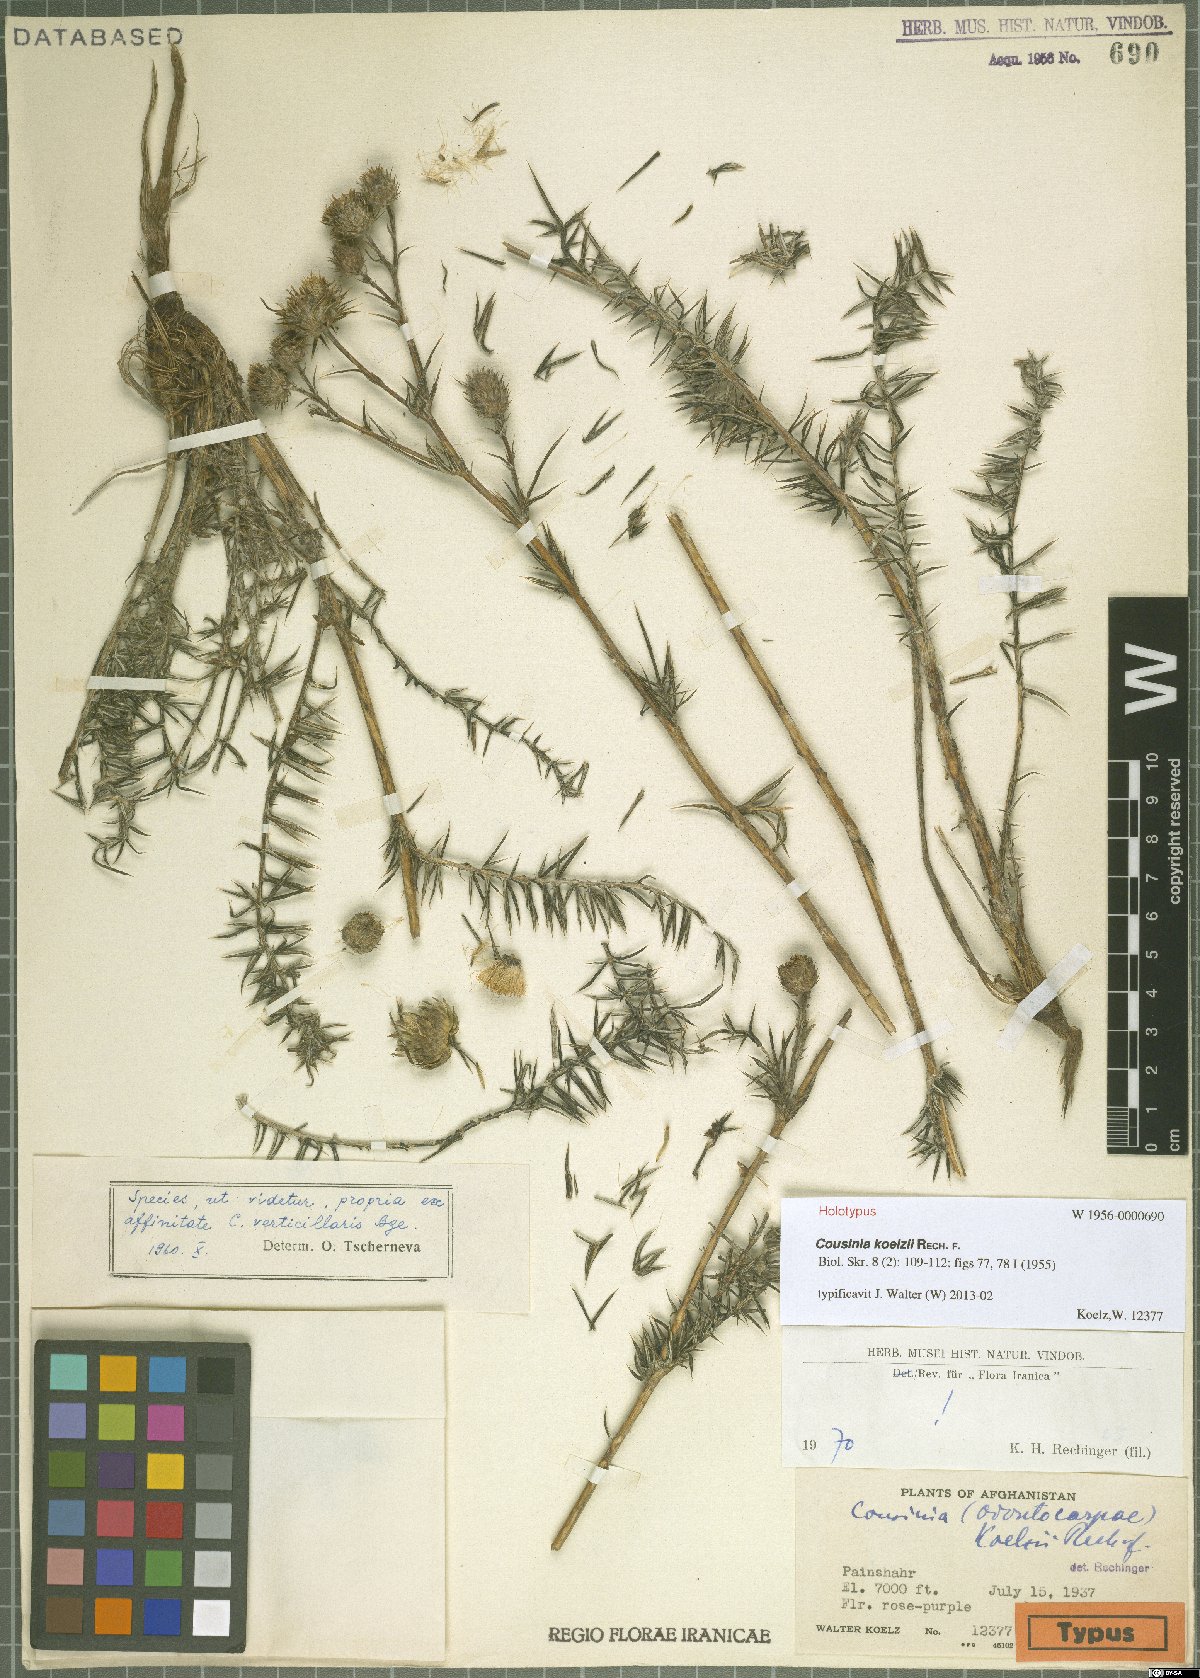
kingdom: Plantae
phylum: Tracheophyta
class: Magnoliopsida
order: Asterales
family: Asteraceae
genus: Cousinia
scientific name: Cousinia koelzii
